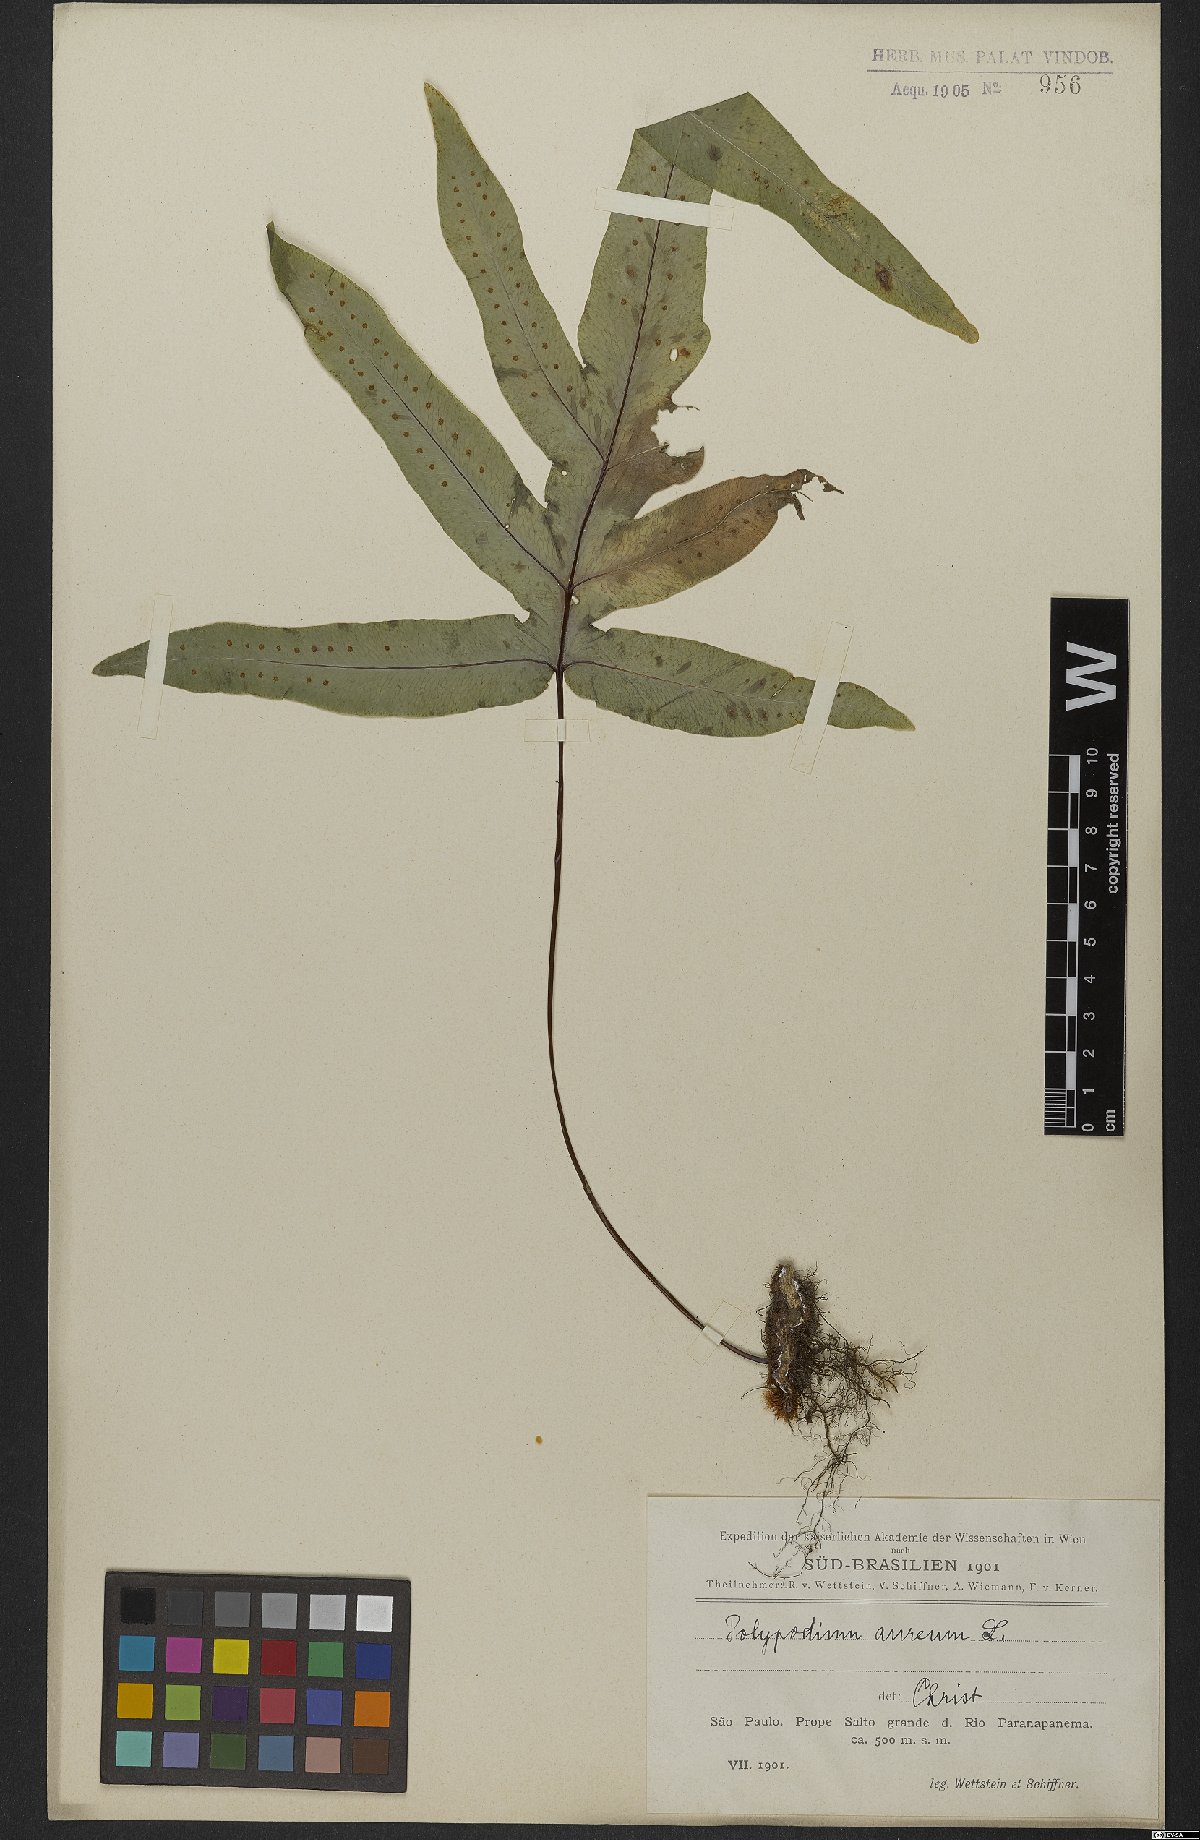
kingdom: Plantae
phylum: Tracheophyta
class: Polypodiopsida
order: Polypodiales
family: Polypodiaceae
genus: Phlebodium
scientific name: Phlebodium aureum
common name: Gold-foot fern
